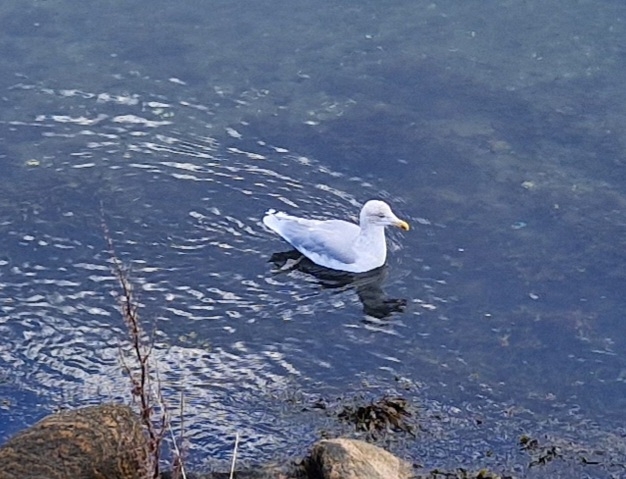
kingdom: Animalia
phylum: Chordata
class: Aves
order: Charadriiformes
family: Laridae
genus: Larus
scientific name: Larus argentatus
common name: Sølvmåge
